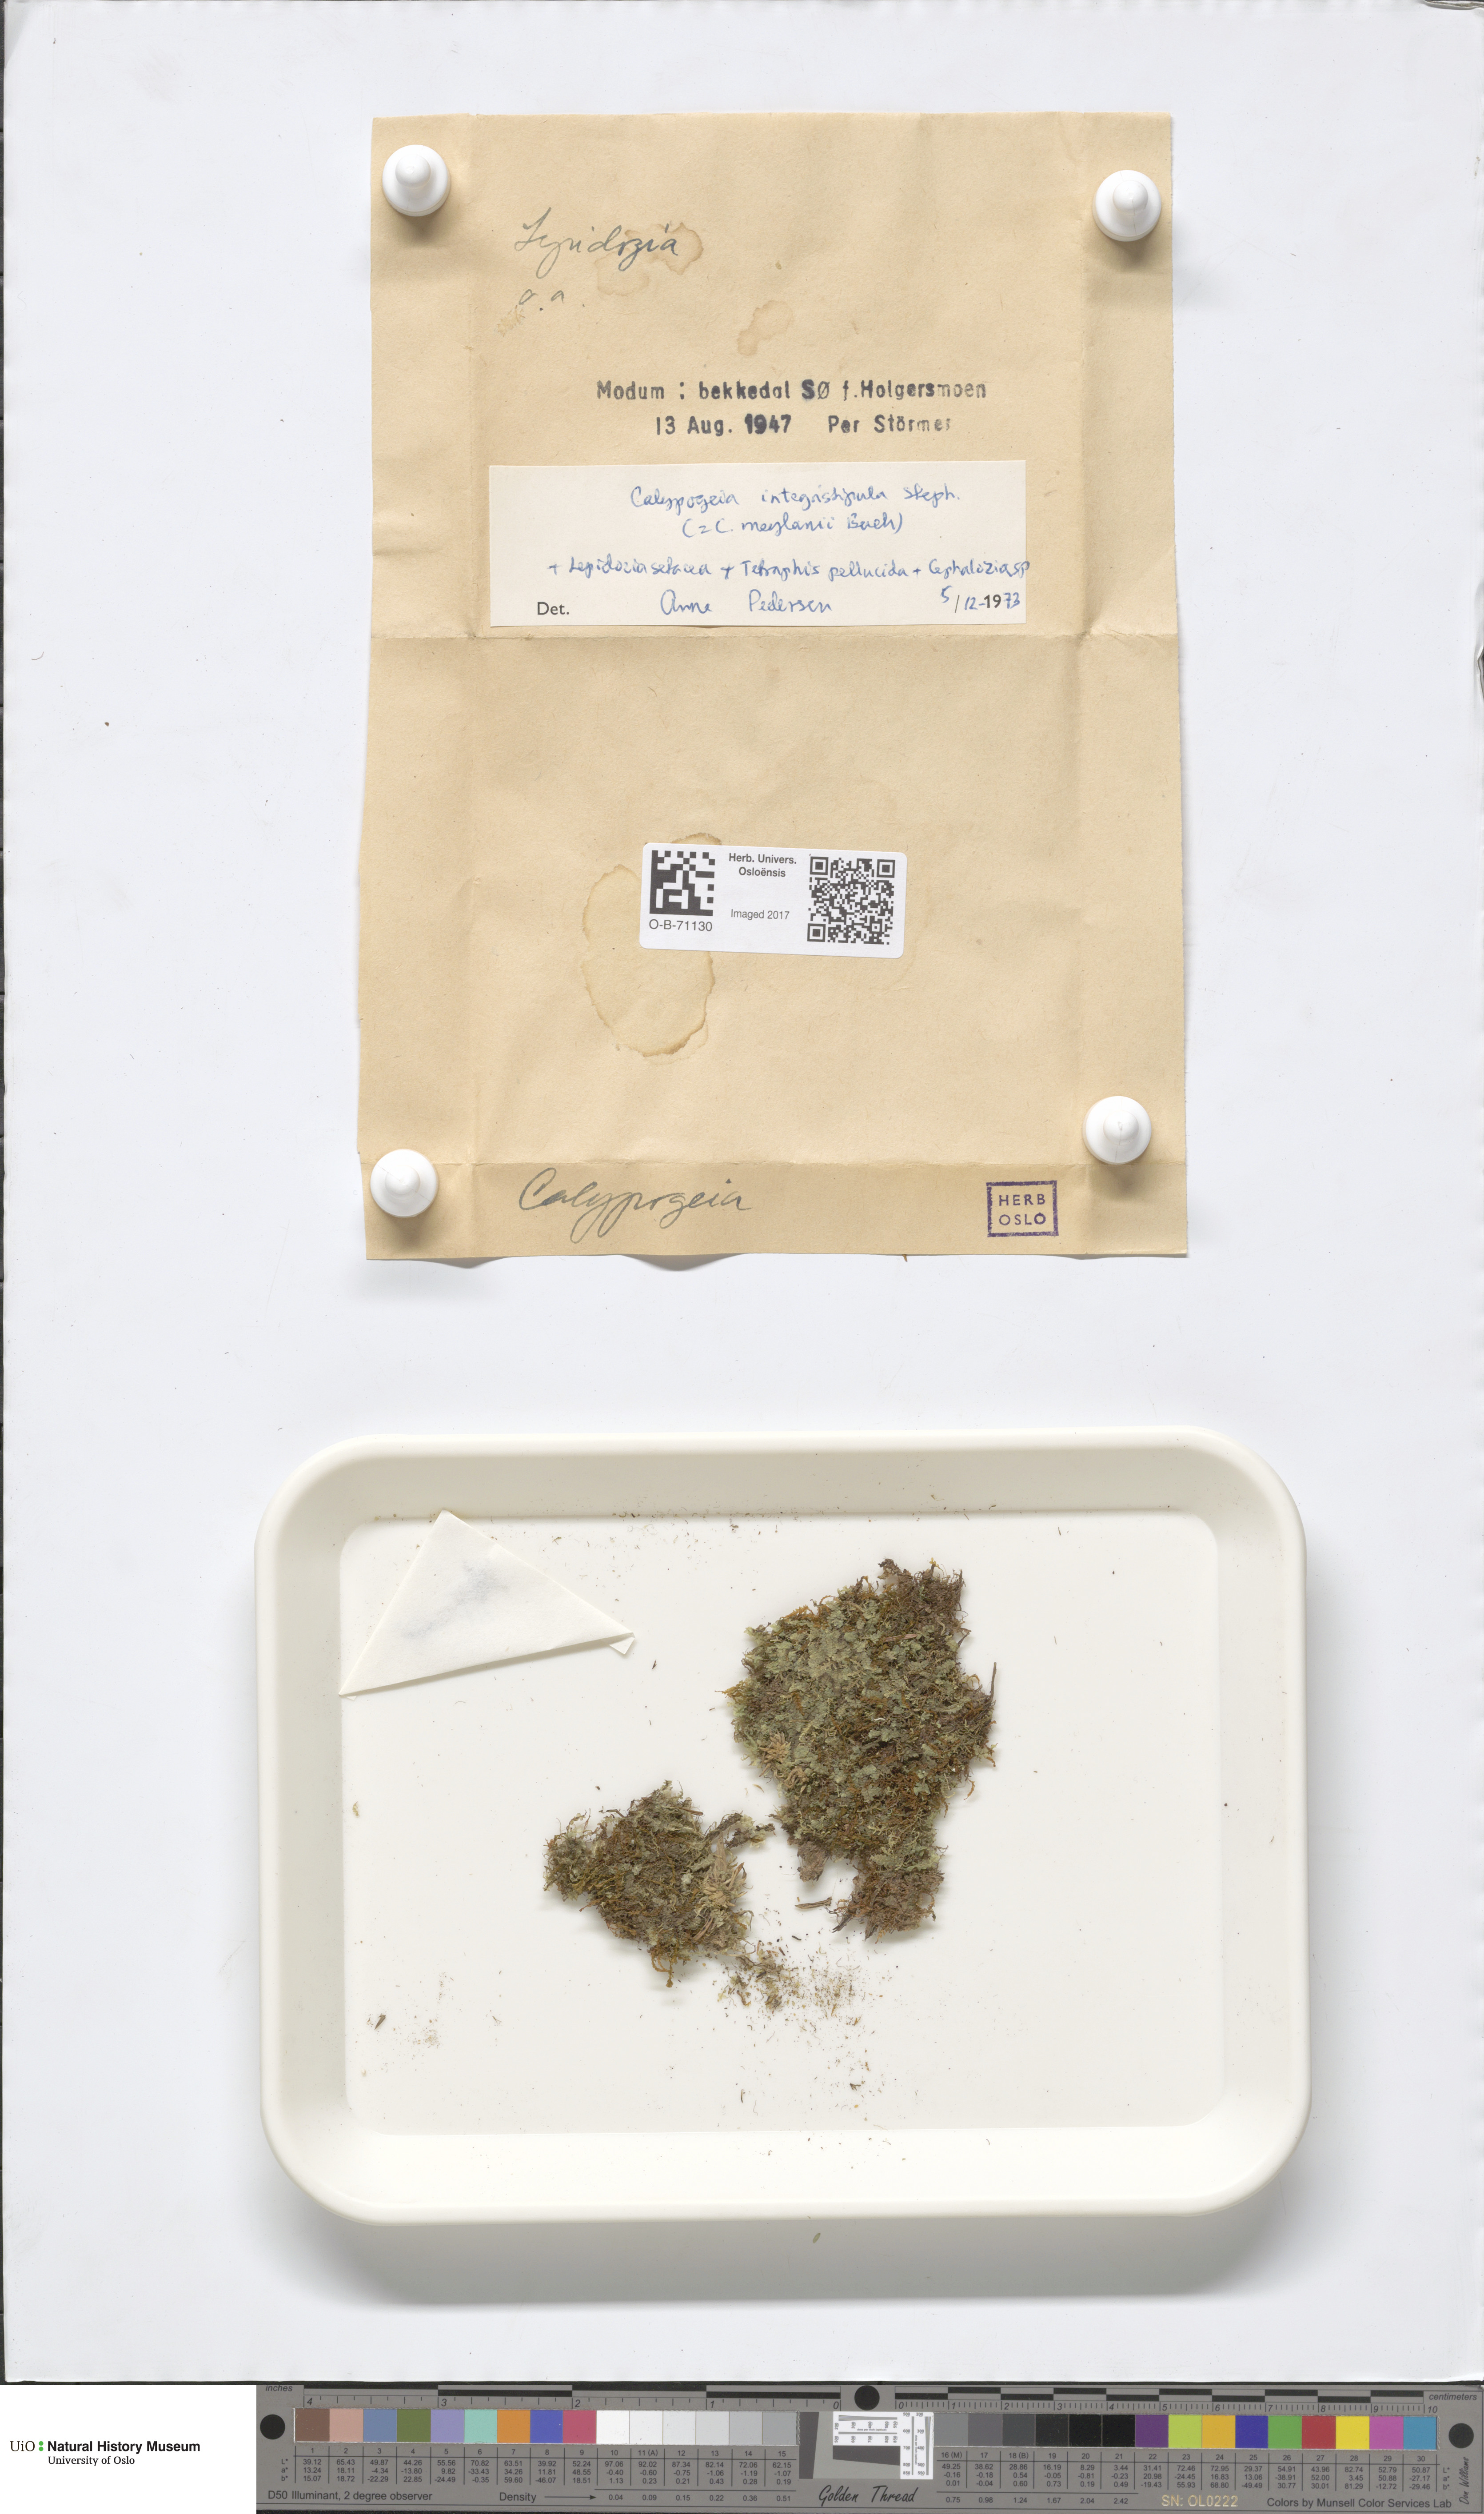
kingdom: Plantae
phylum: Marchantiophyta
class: Jungermanniopsida
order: Jungermanniales
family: Calypogeiaceae
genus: Calypogeia
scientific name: Calypogeia integristipula
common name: Meylan s pouchwort
